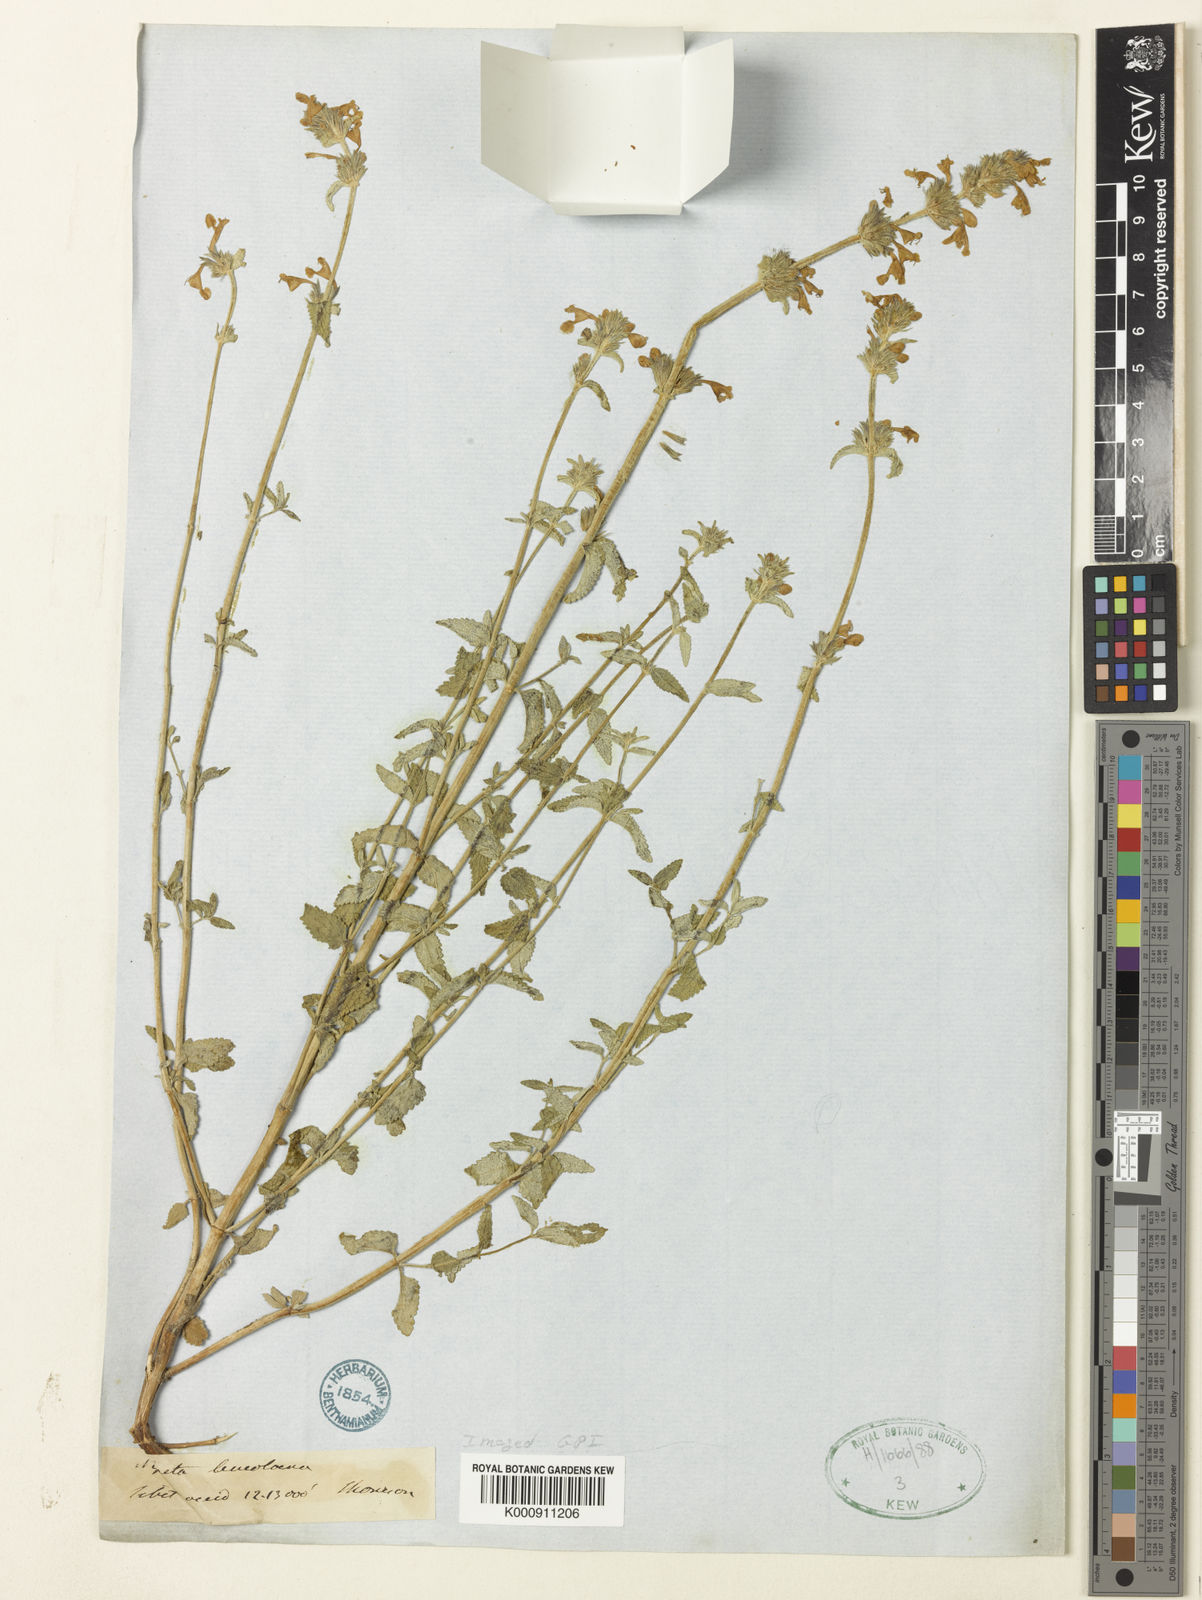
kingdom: Plantae
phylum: Tracheophyta
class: Magnoliopsida
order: Lamiales
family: Lamiaceae
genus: Nepeta
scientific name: Nepeta campestris
